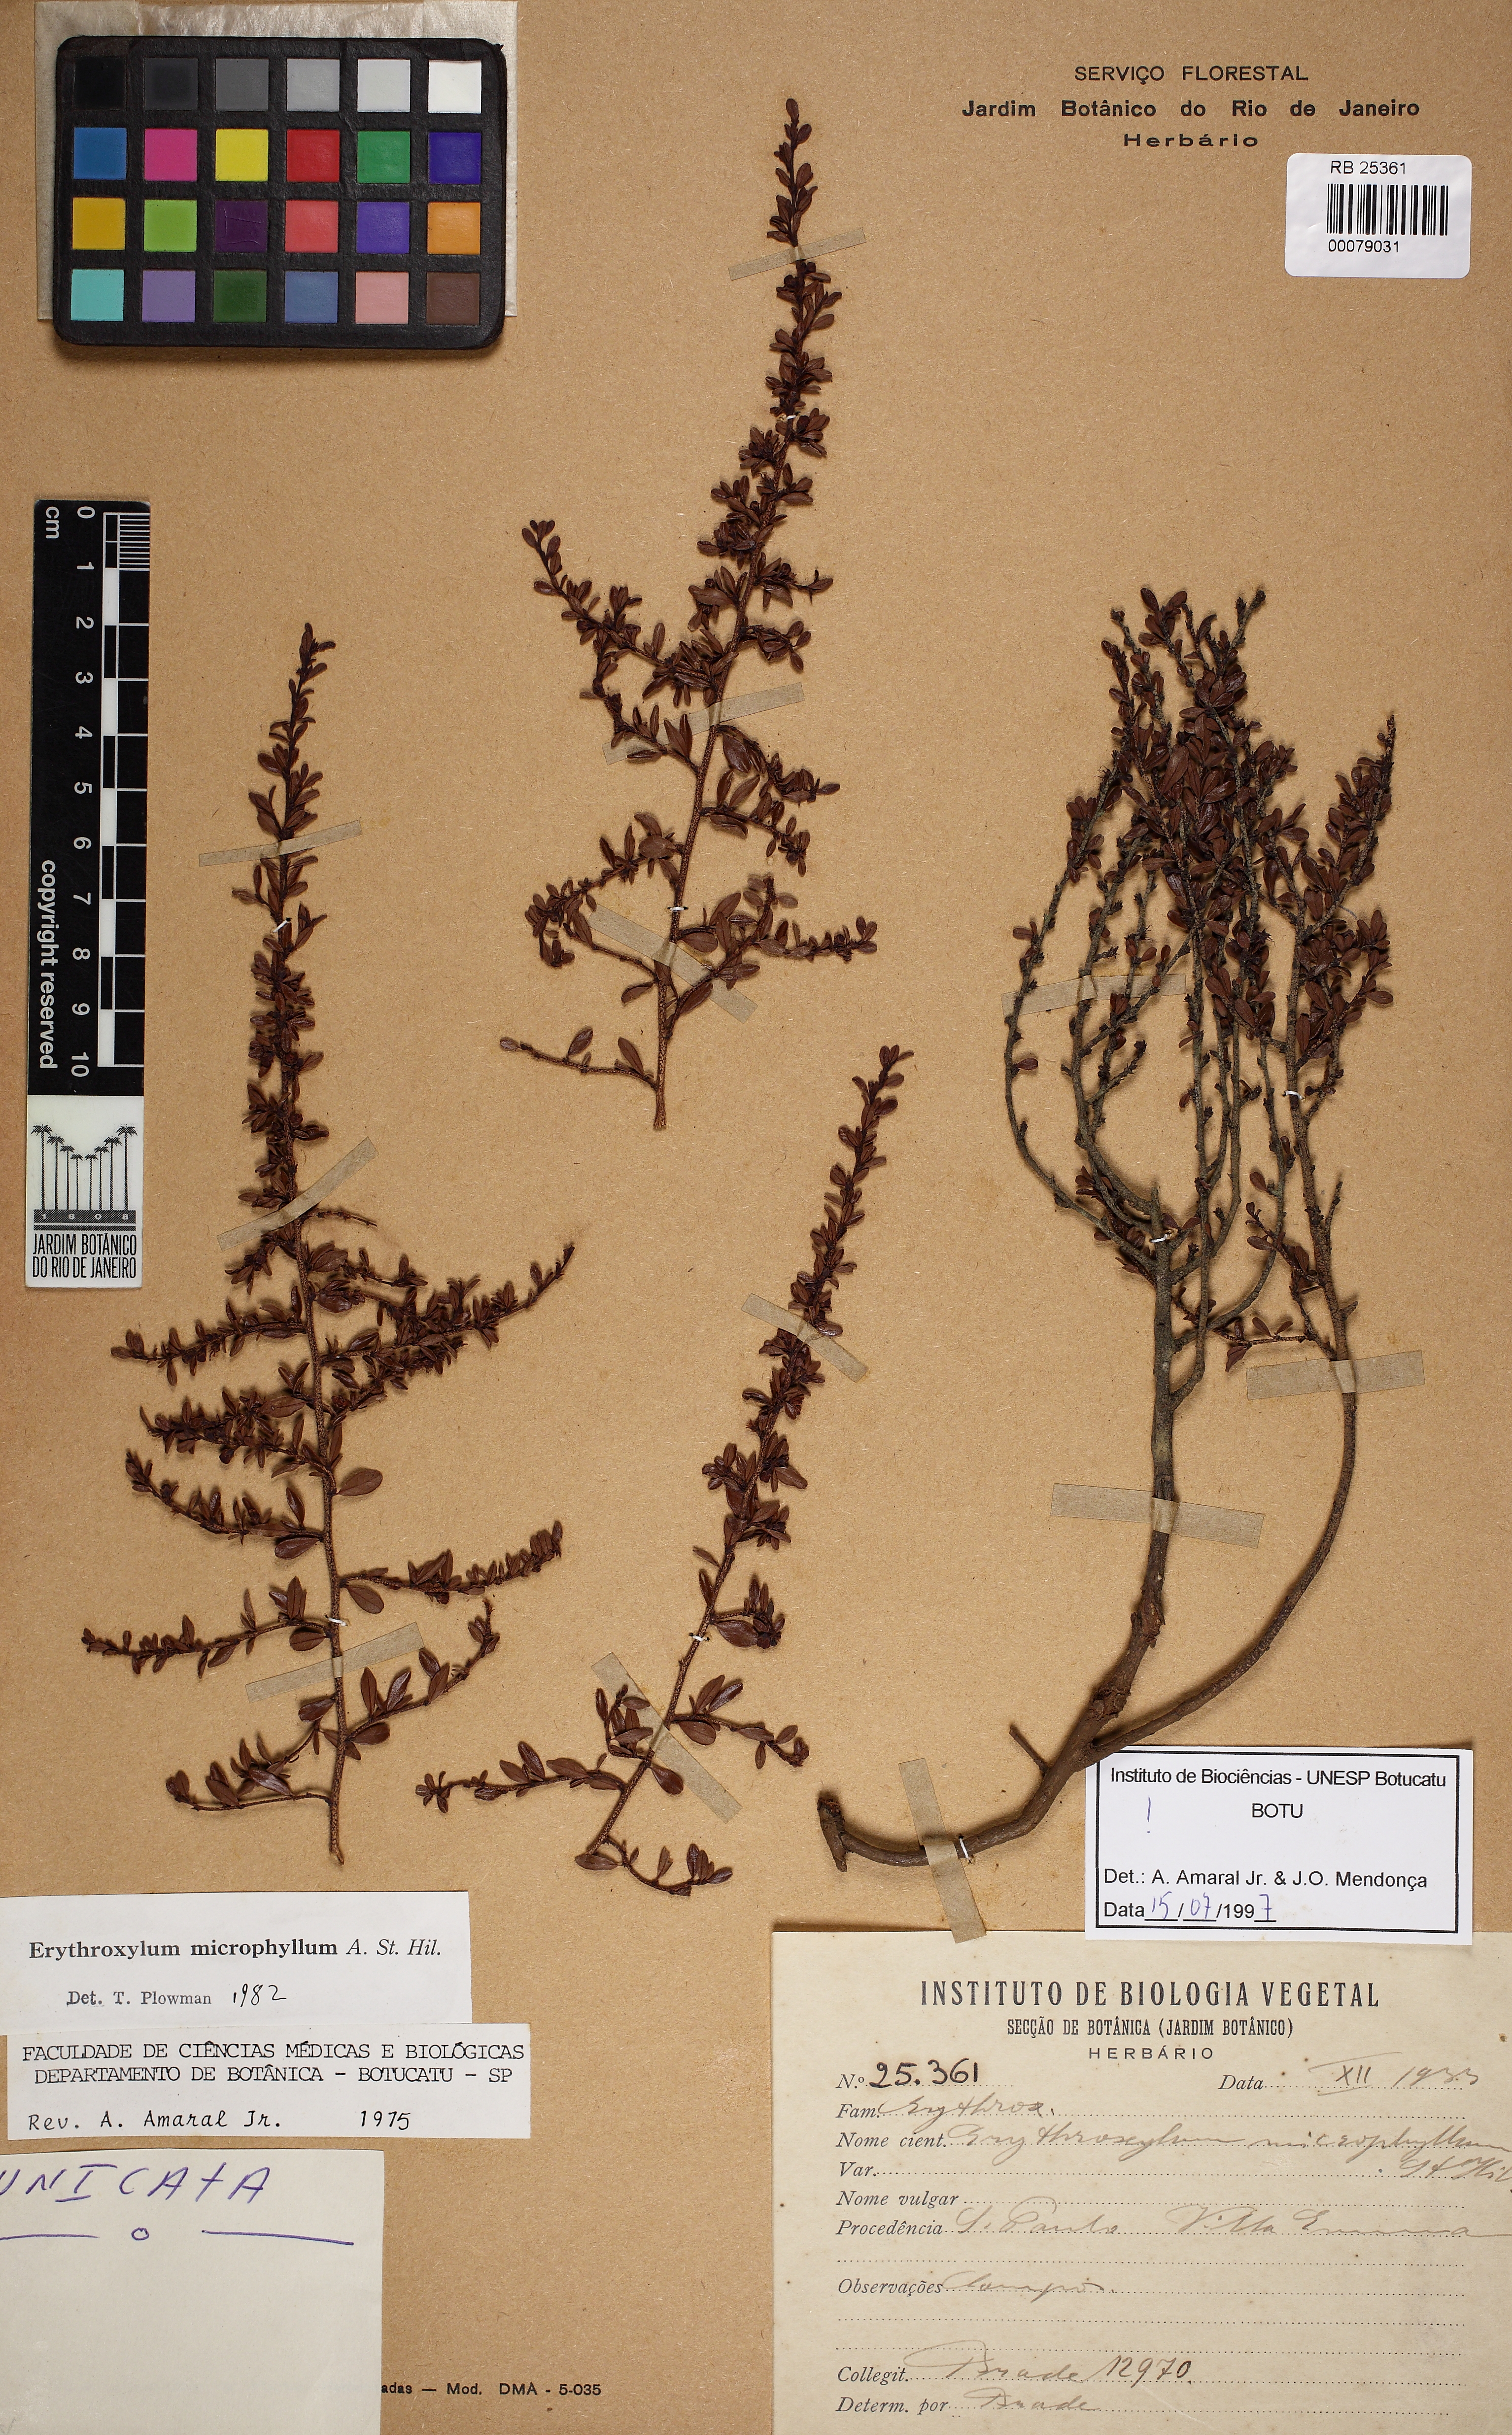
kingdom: Plantae
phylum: Tracheophyta
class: Magnoliopsida
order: Malpighiales
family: Erythroxylaceae
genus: Erythroxylum
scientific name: Erythroxylum microphyllum
